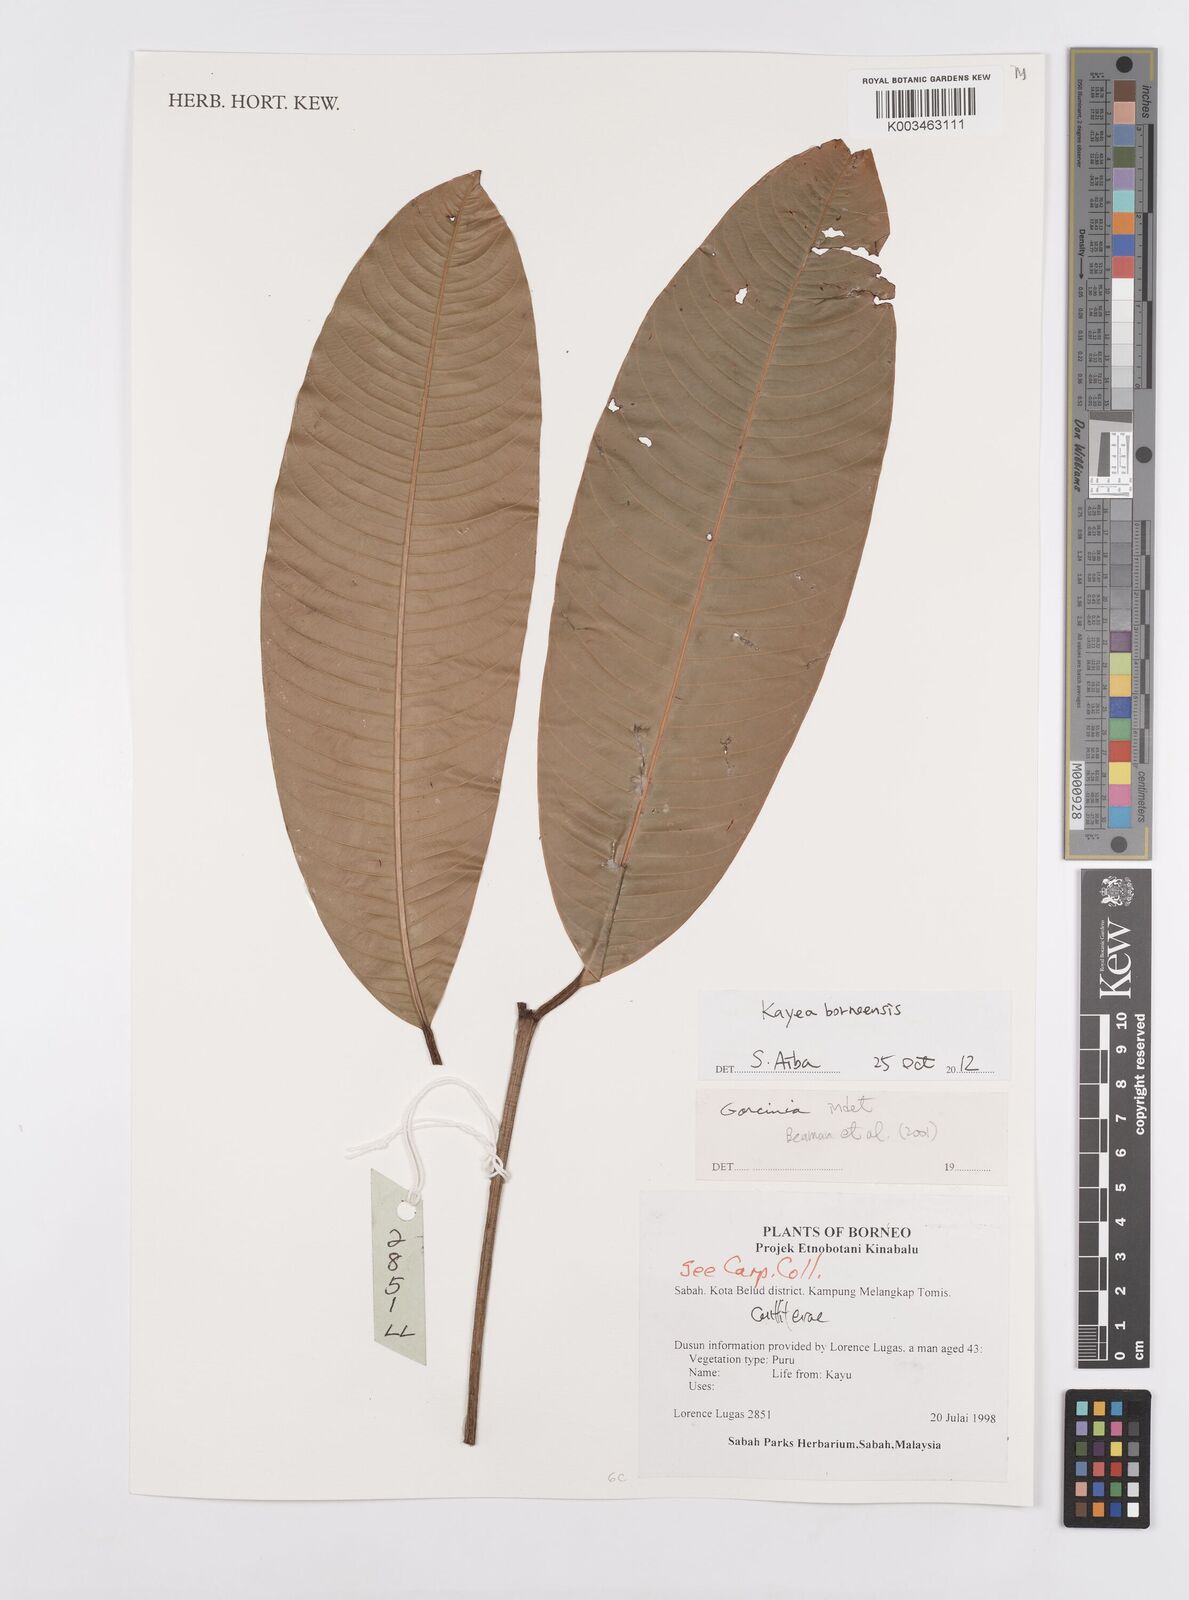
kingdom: Plantae
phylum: Tracheophyta
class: Magnoliopsida
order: Malpighiales
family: Calophyllaceae
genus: Kayea
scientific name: Kayea borneensis
